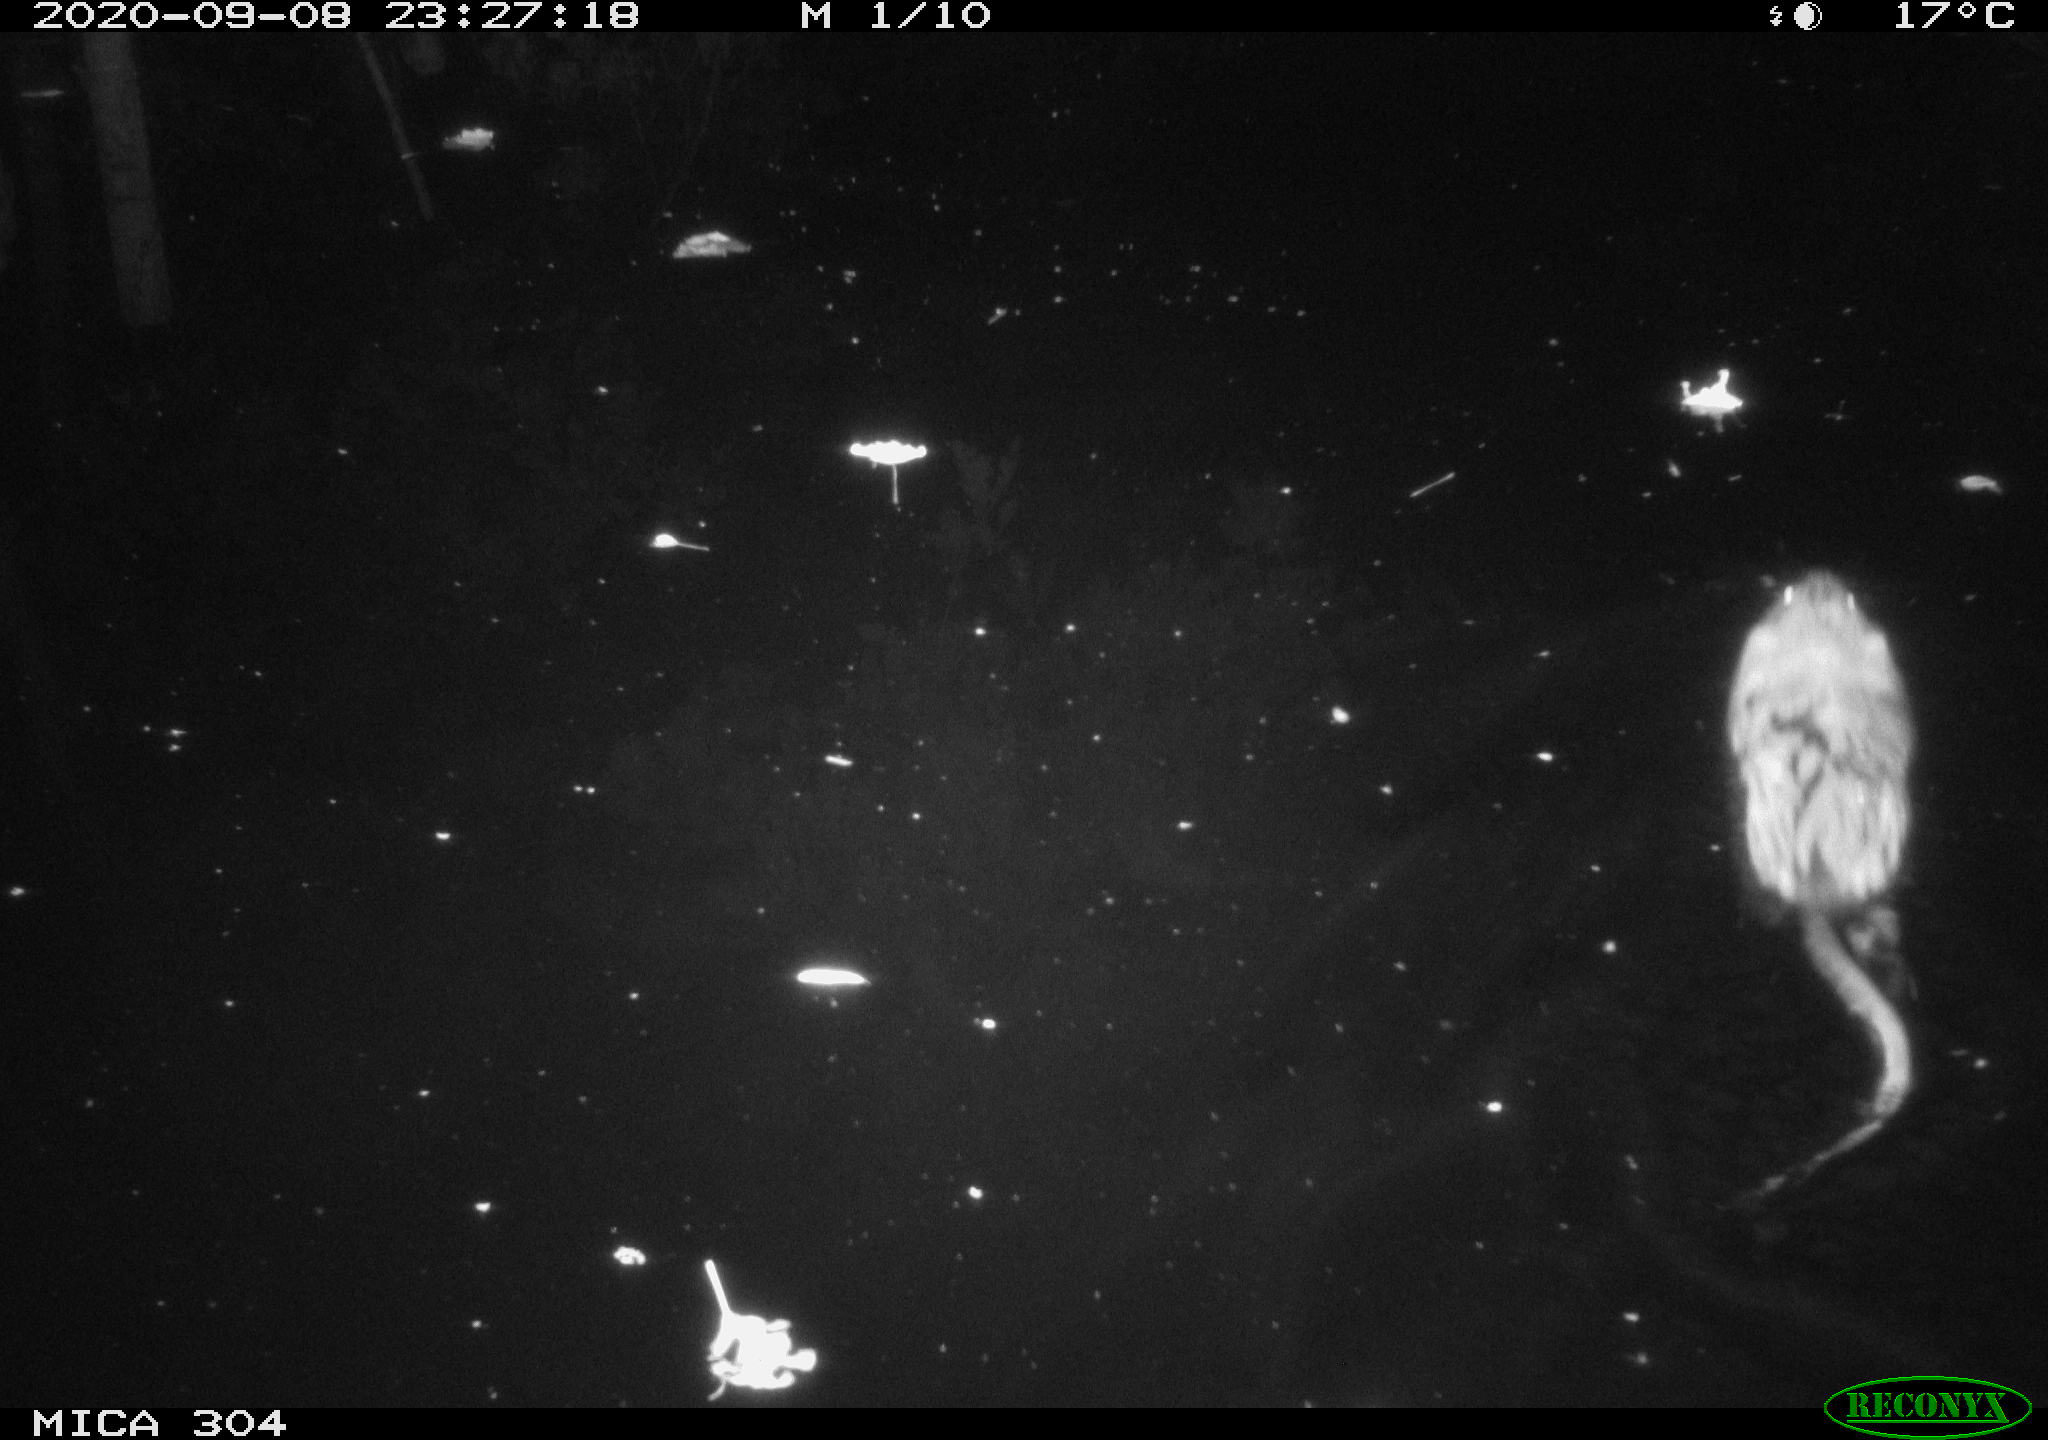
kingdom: Animalia
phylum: Chordata
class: Mammalia
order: Rodentia
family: Cricetidae
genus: Ondatra
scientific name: Ondatra zibethicus
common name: Muskrat
